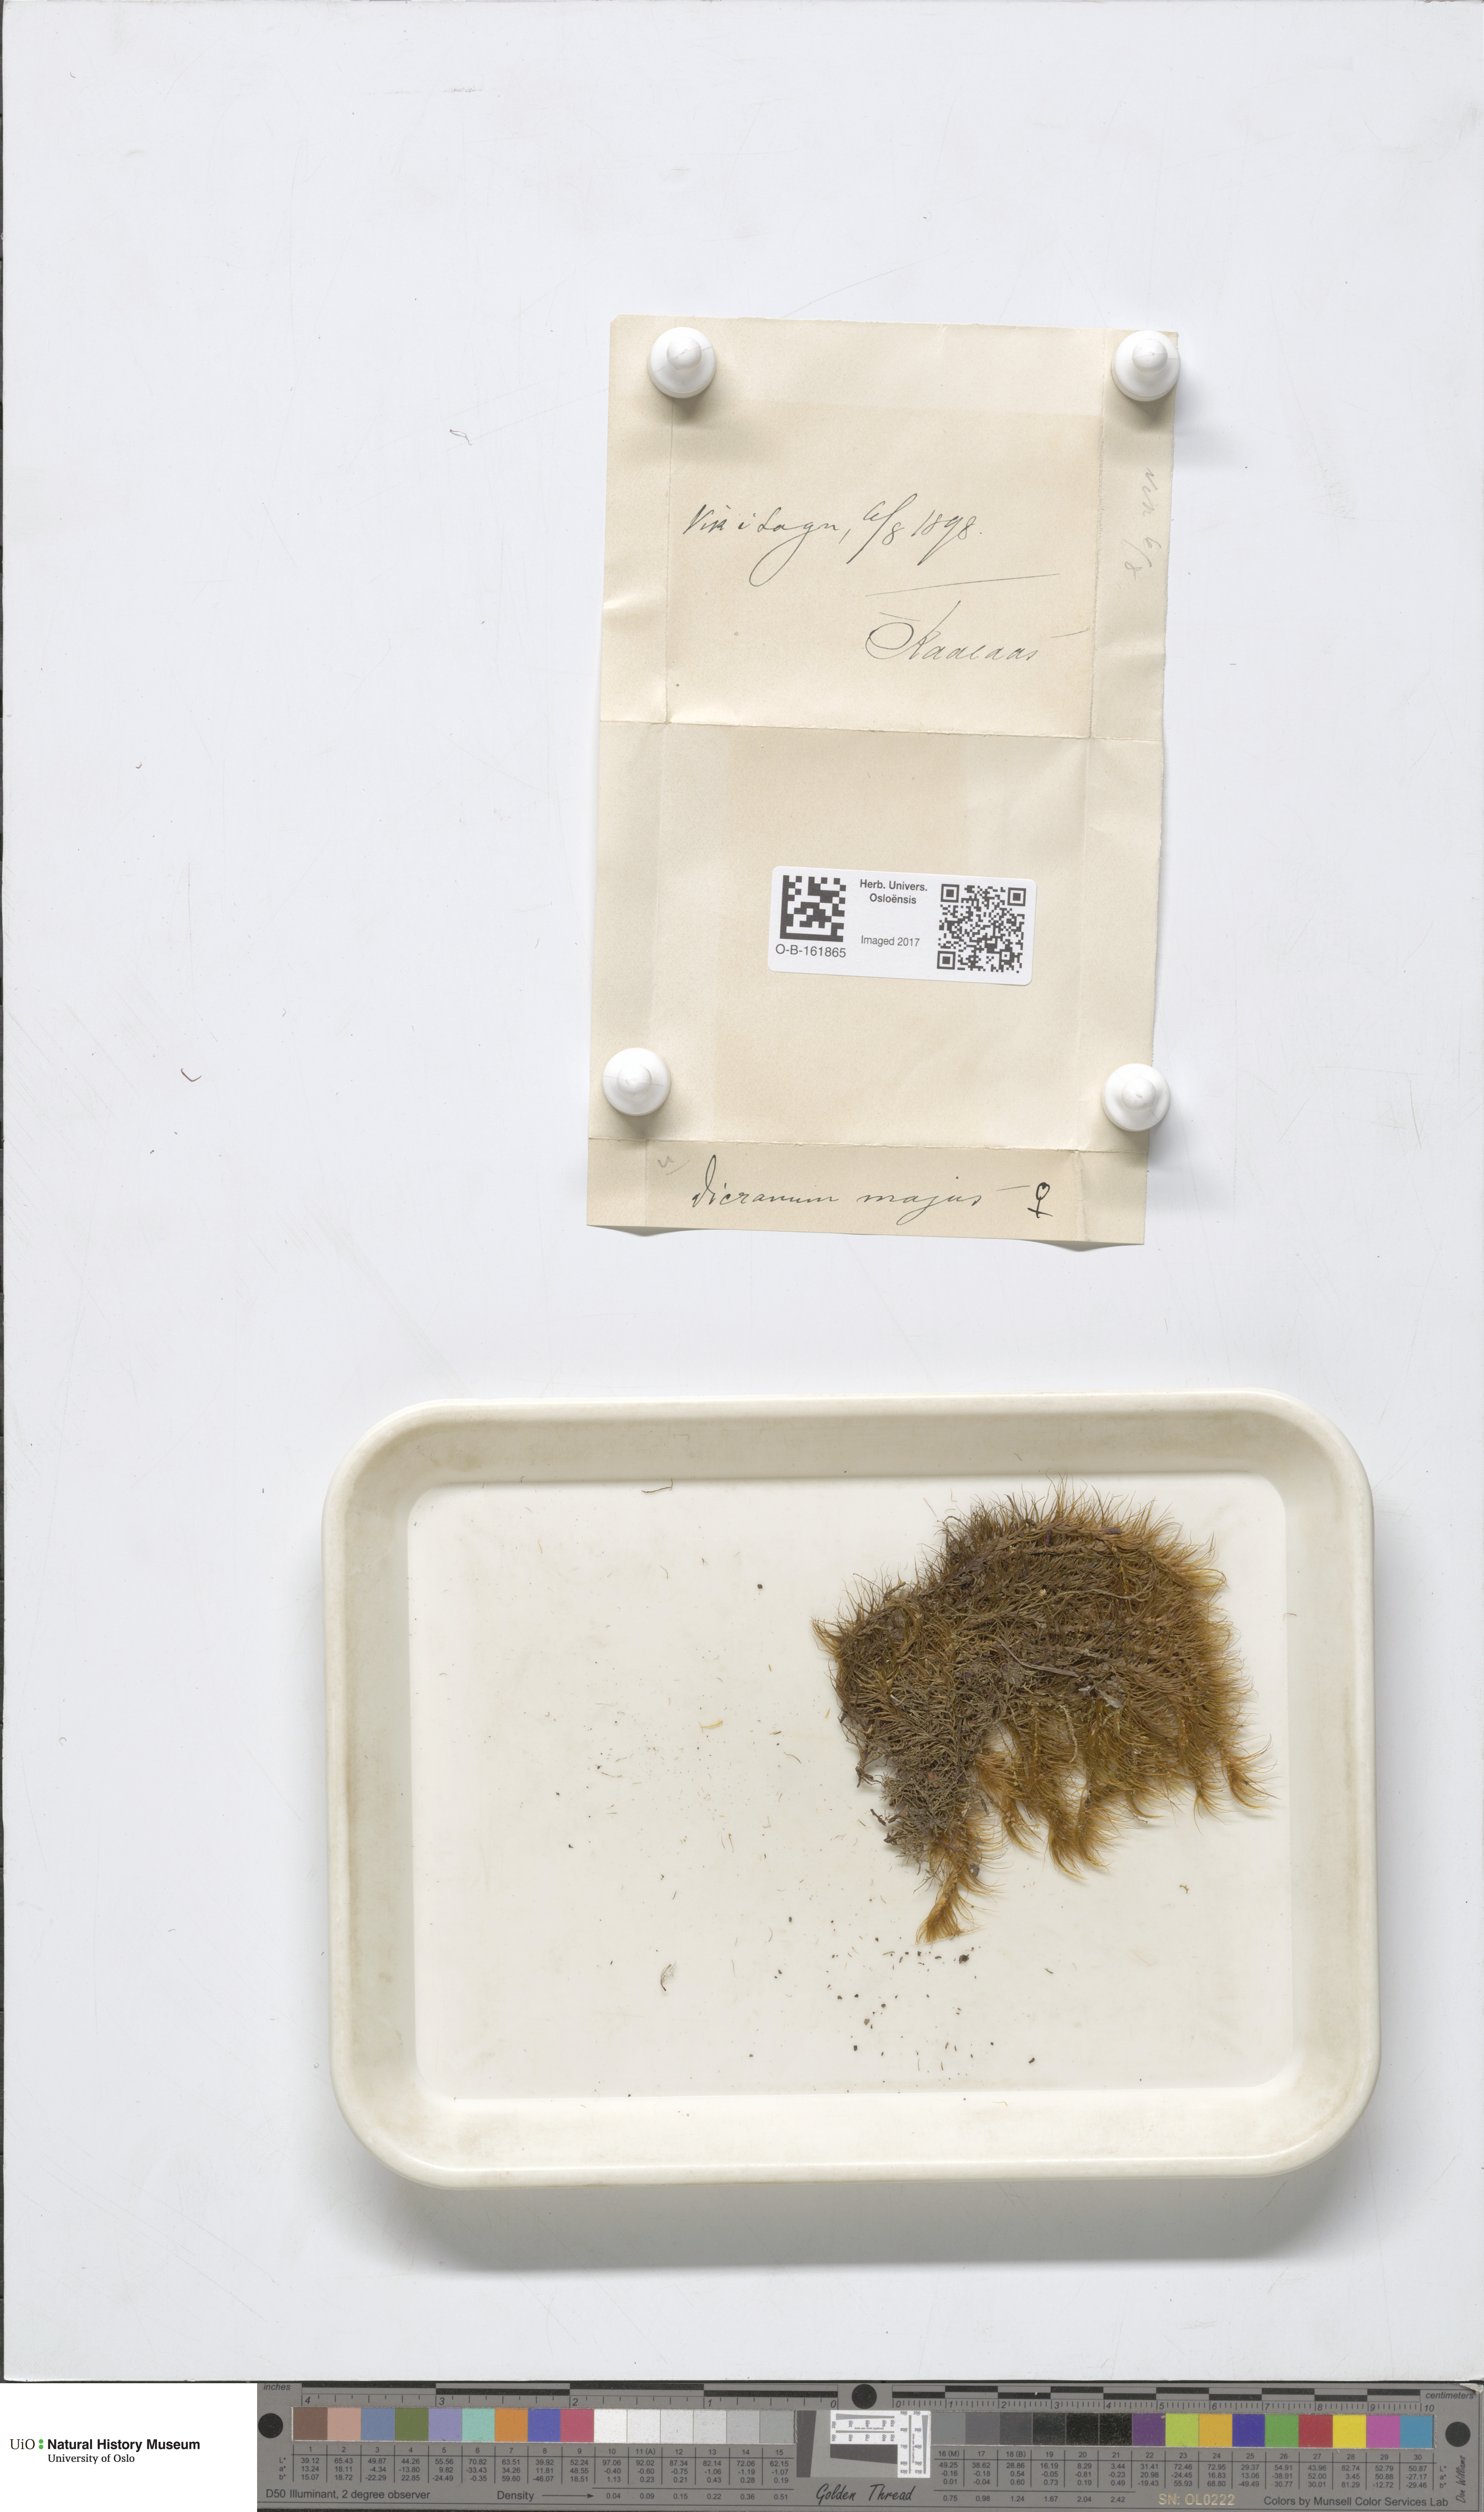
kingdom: Plantae
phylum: Bryophyta
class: Bryopsida
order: Dicranales
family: Dicranaceae
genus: Dicranum
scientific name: Dicranum majus
